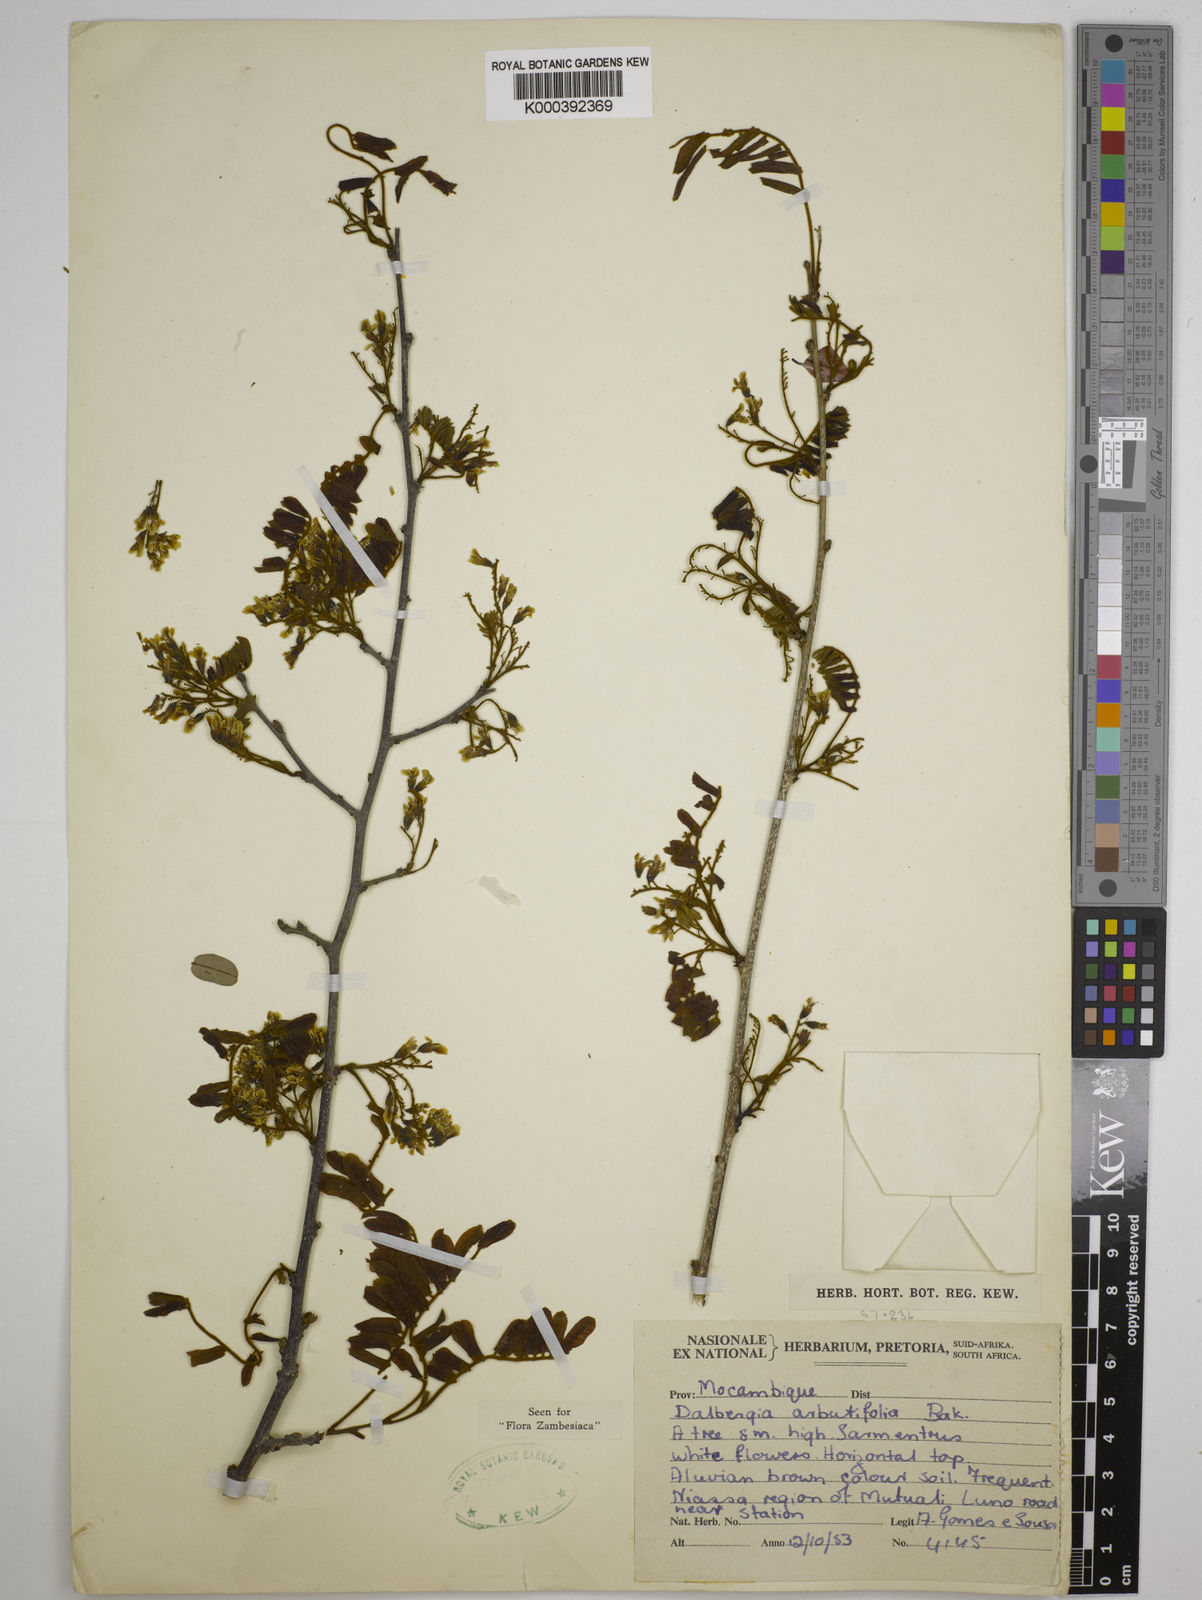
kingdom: Plantae
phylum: Tracheophyta
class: Magnoliopsida
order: Fabales
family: Fabaceae
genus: Dalbergia
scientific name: Dalbergia arbutifolia
